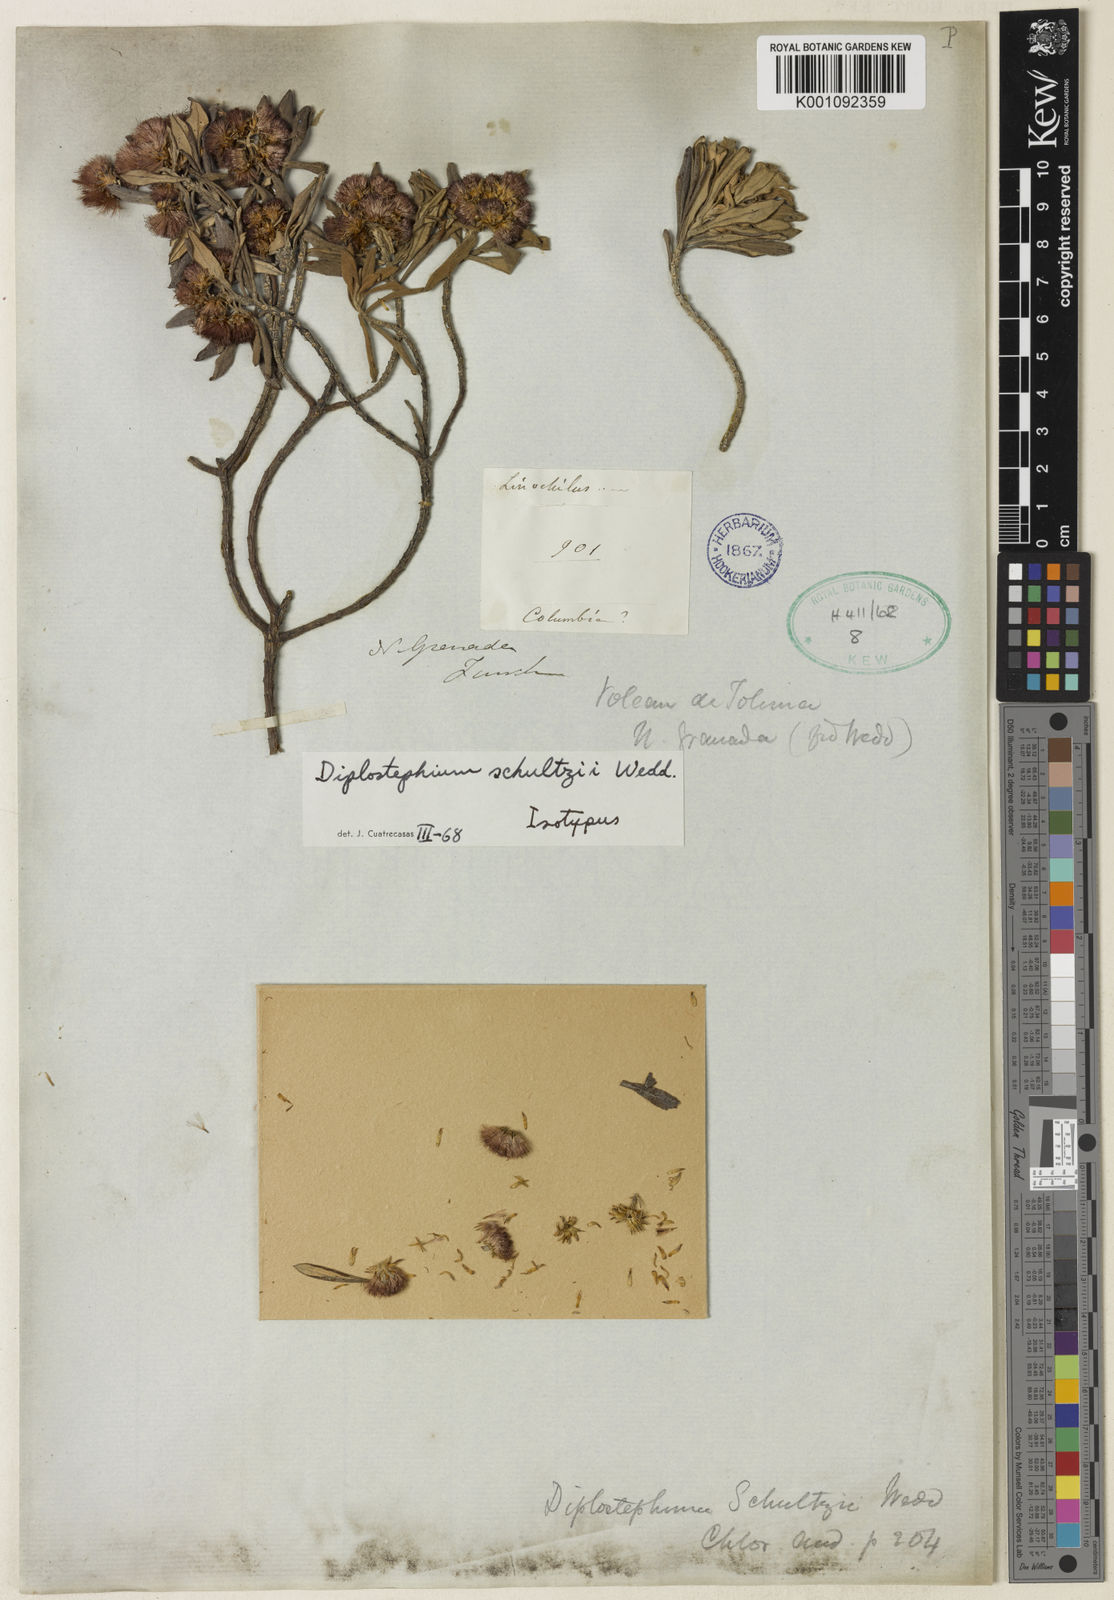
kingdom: Plantae
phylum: Tracheophyta
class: Magnoliopsida
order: Asterales
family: Asteraceae
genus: Linochilus
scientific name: Linochilus schultzii
